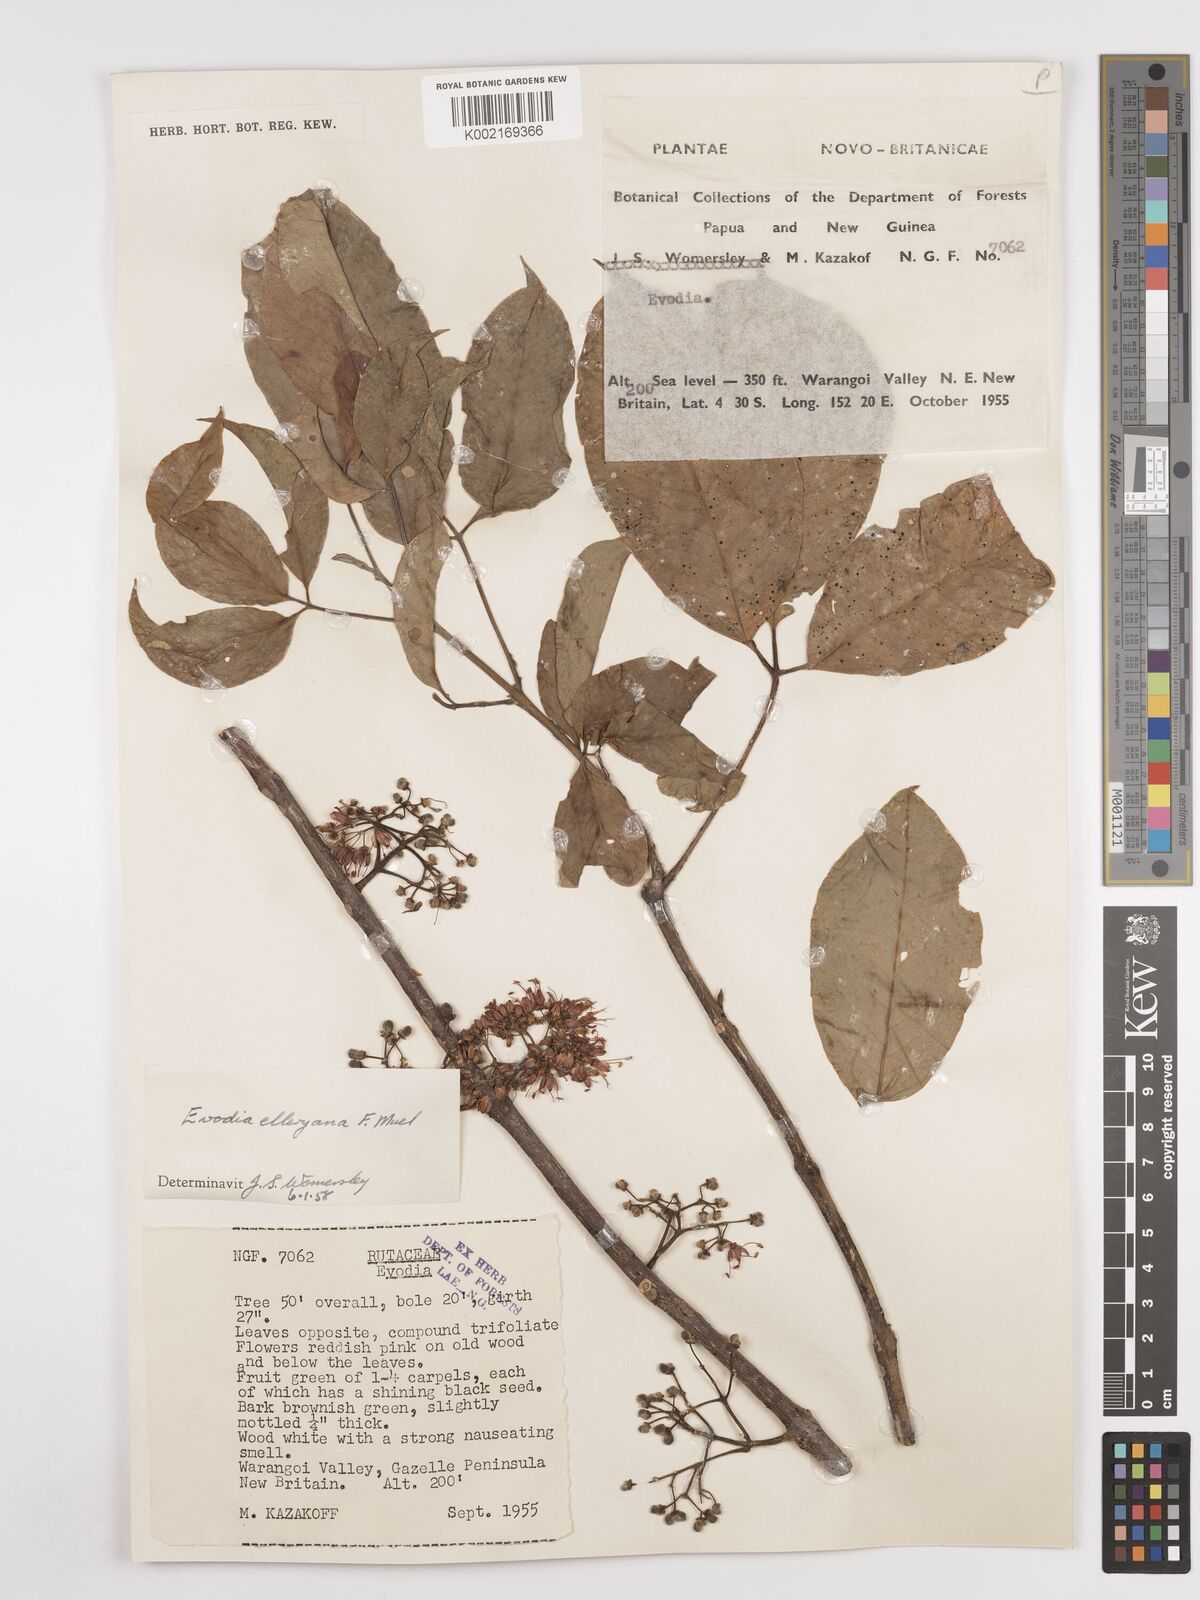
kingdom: Plantae
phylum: Tracheophyta
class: Magnoliopsida
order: Sapindales
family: Rutaceae
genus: Melicope
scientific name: Melicope elleryana
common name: Pink euodia
